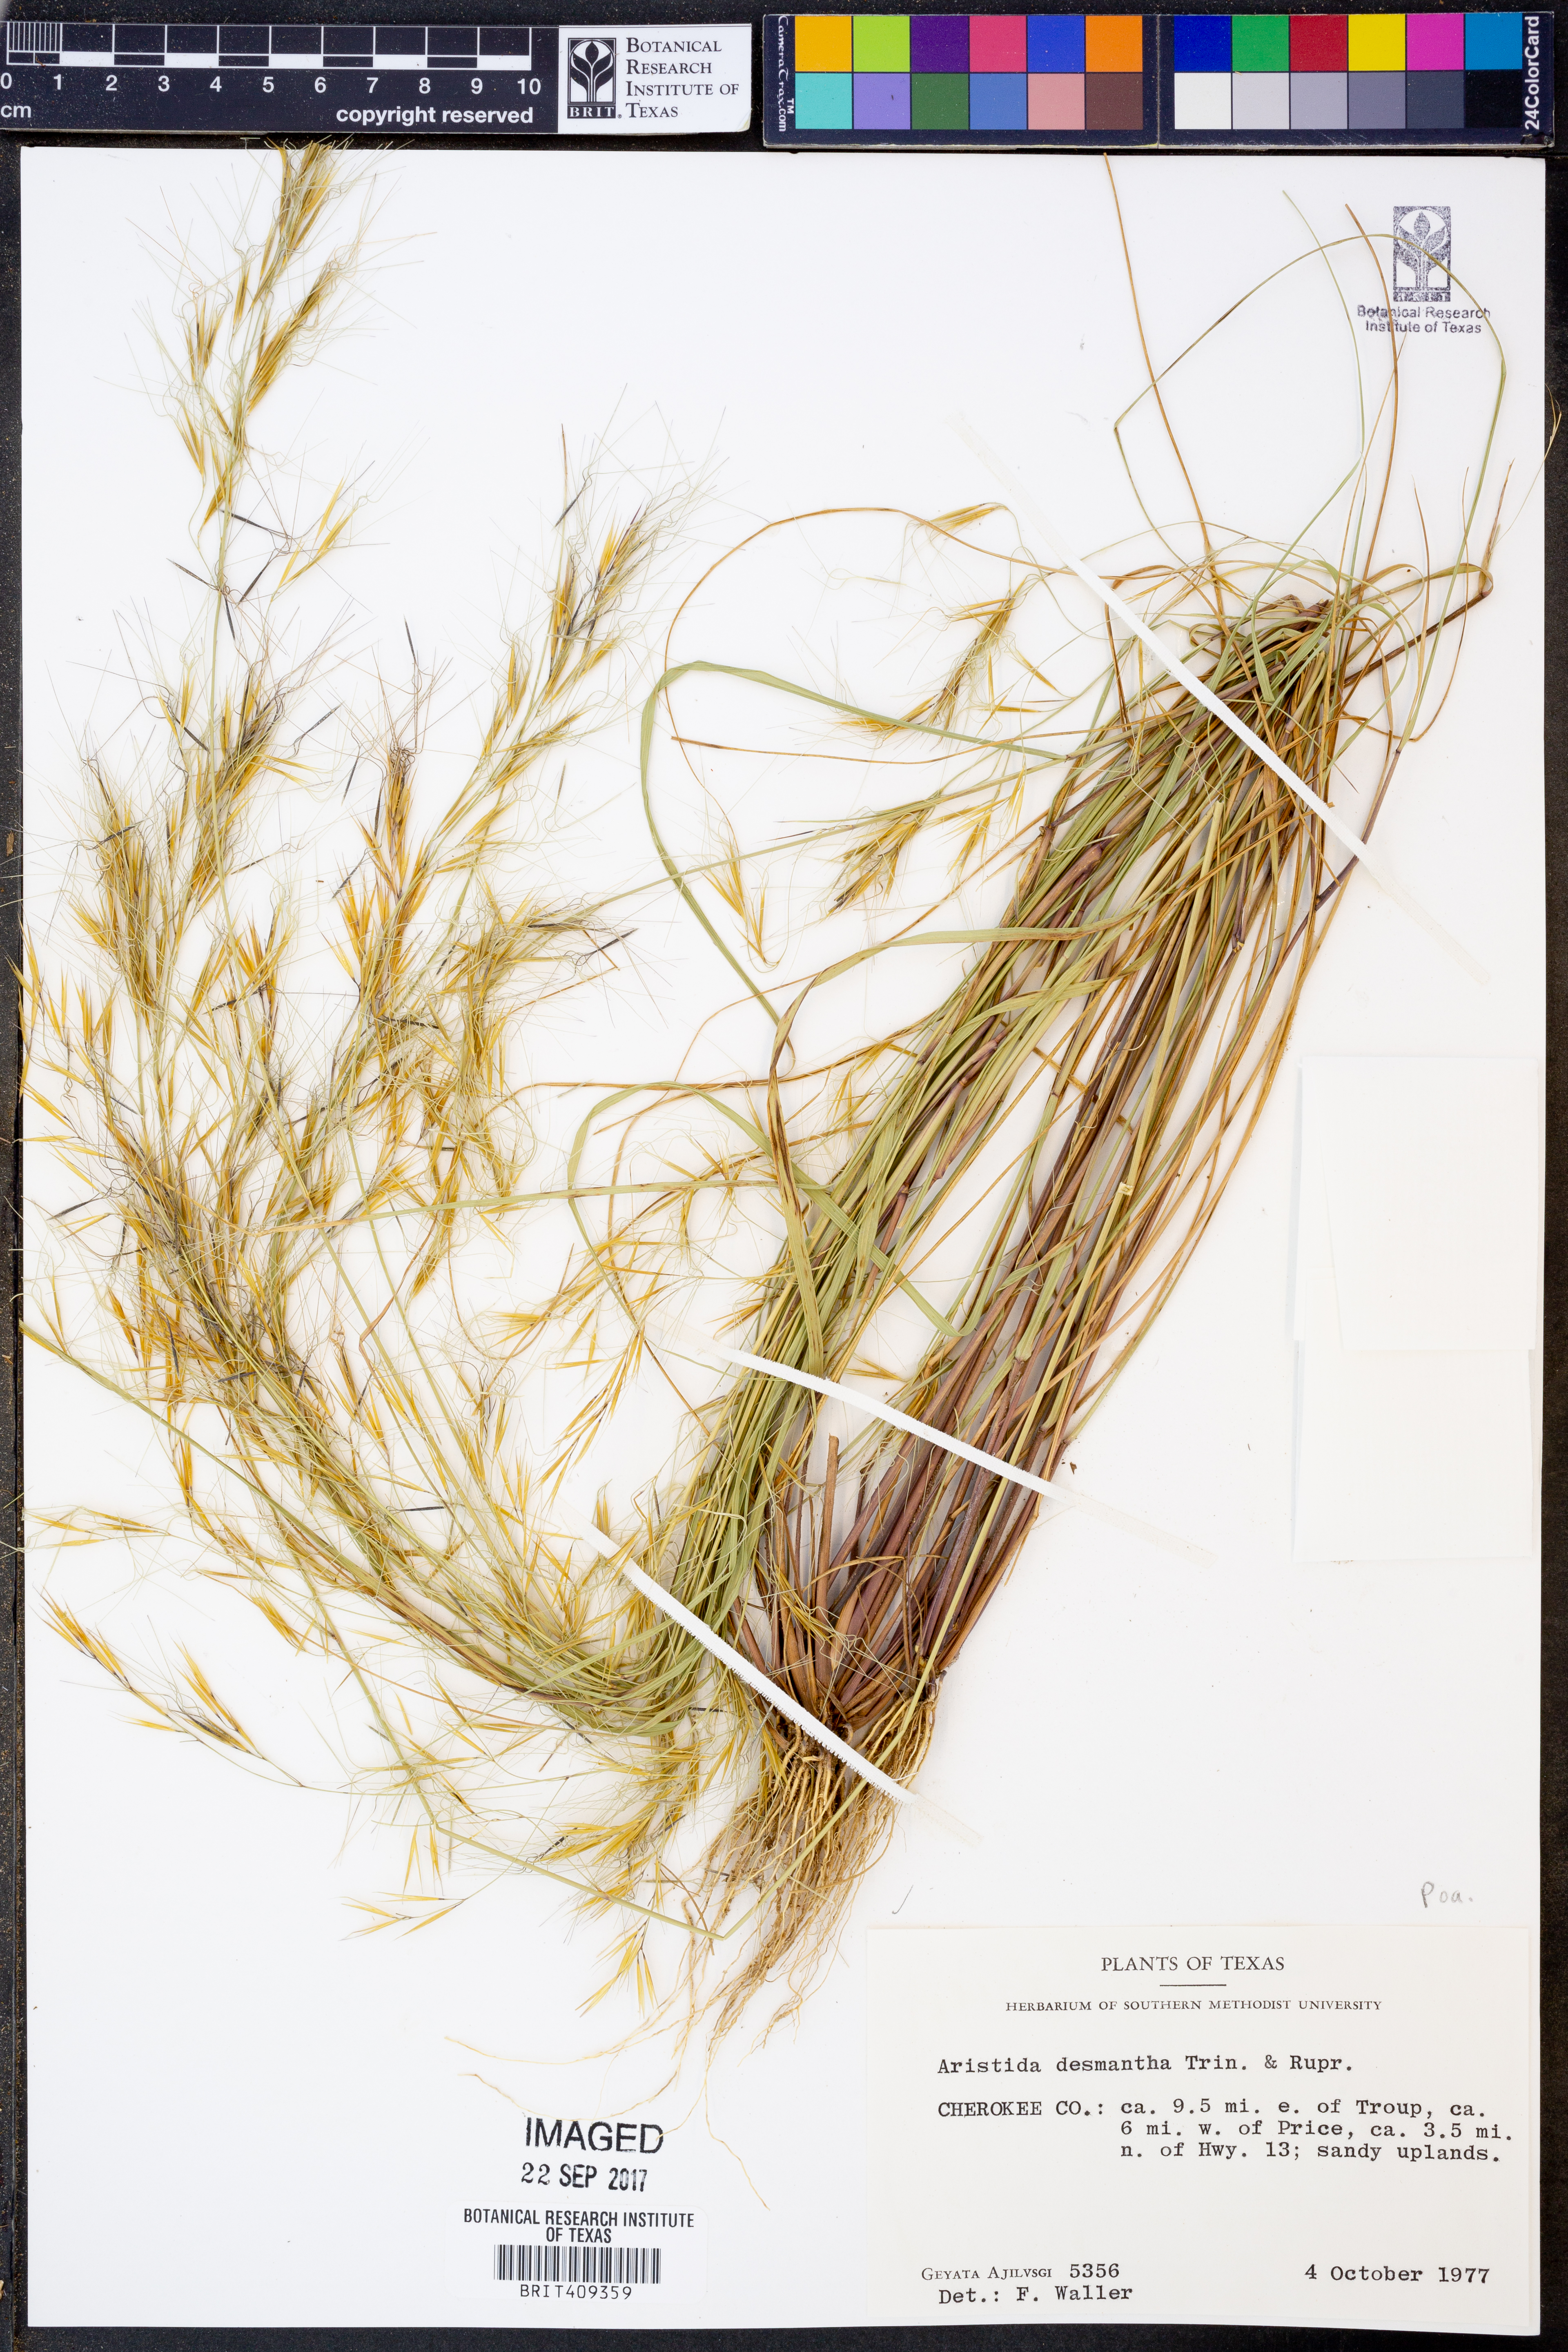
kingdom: Plantae
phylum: Tracheophyta
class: Liliopsida
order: Poales
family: Poaceae
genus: Aristida
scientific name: Aristida desmantha
